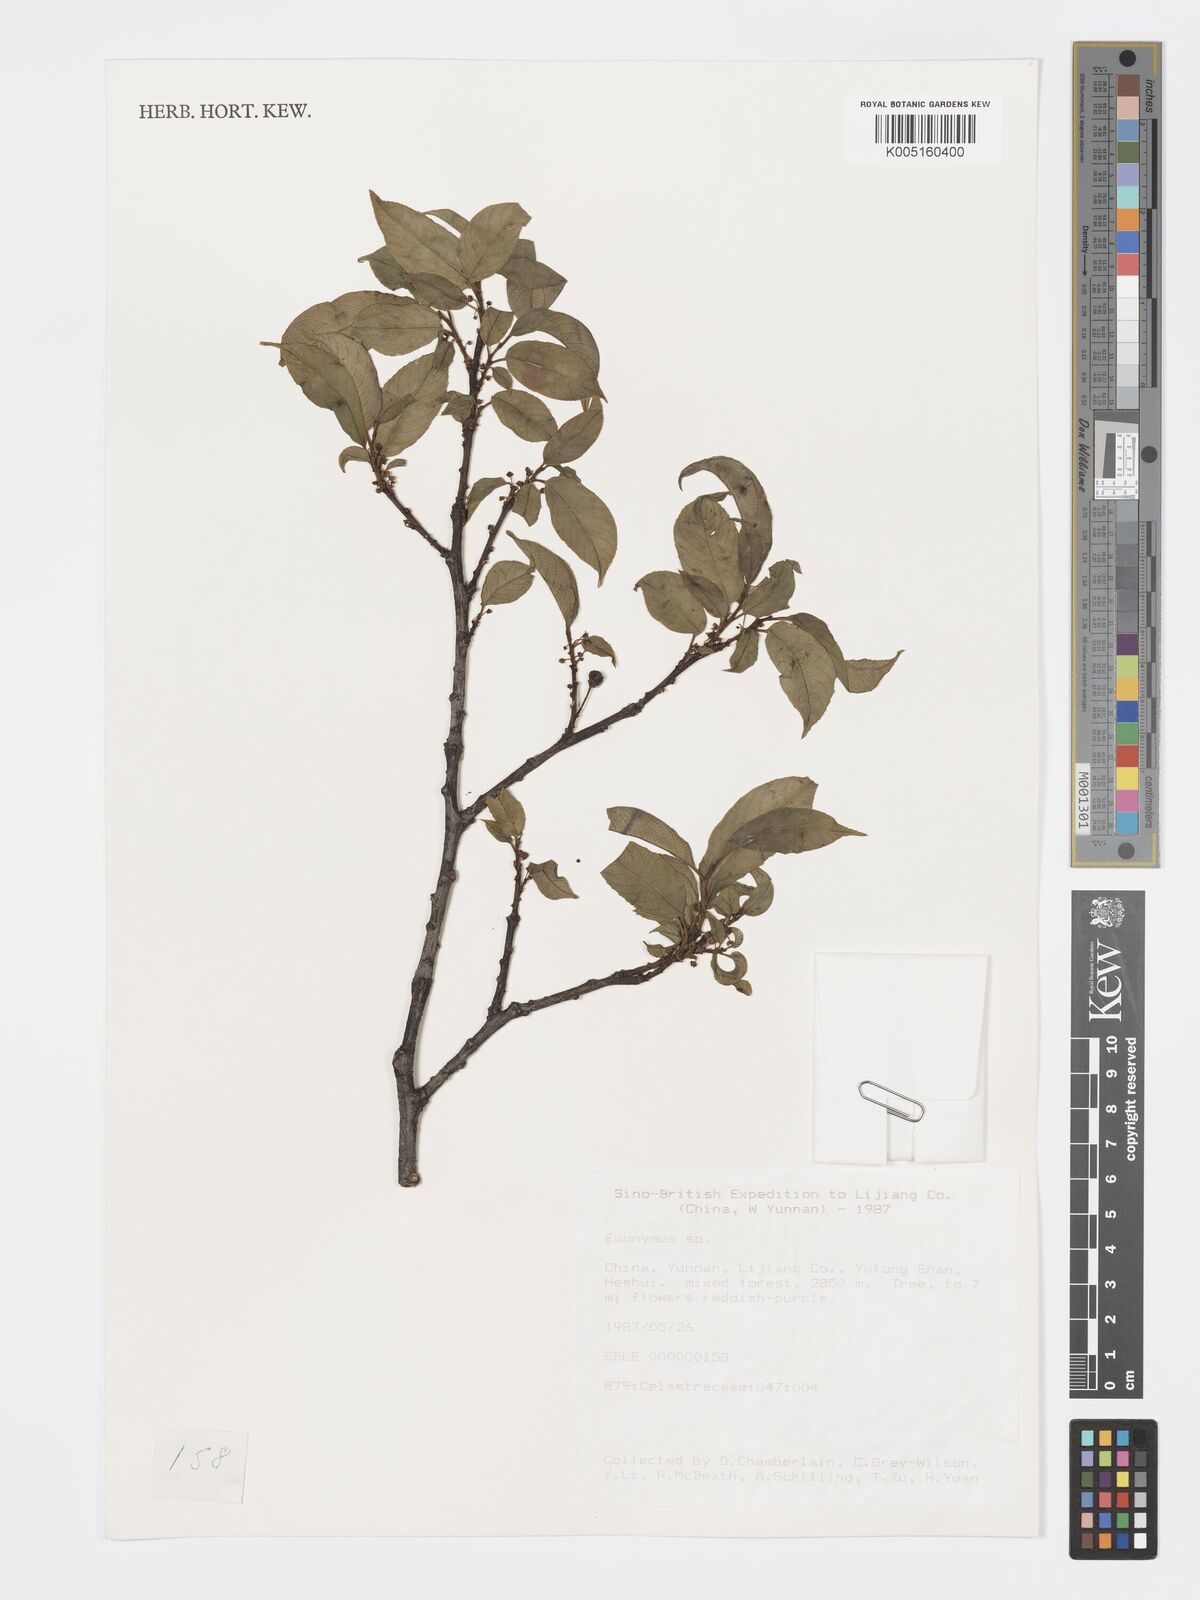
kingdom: Plantae
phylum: Tracheophyta
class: Magnoliopsida
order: Celastrales
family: Celastraceae
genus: Euonymus
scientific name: Euonymus
